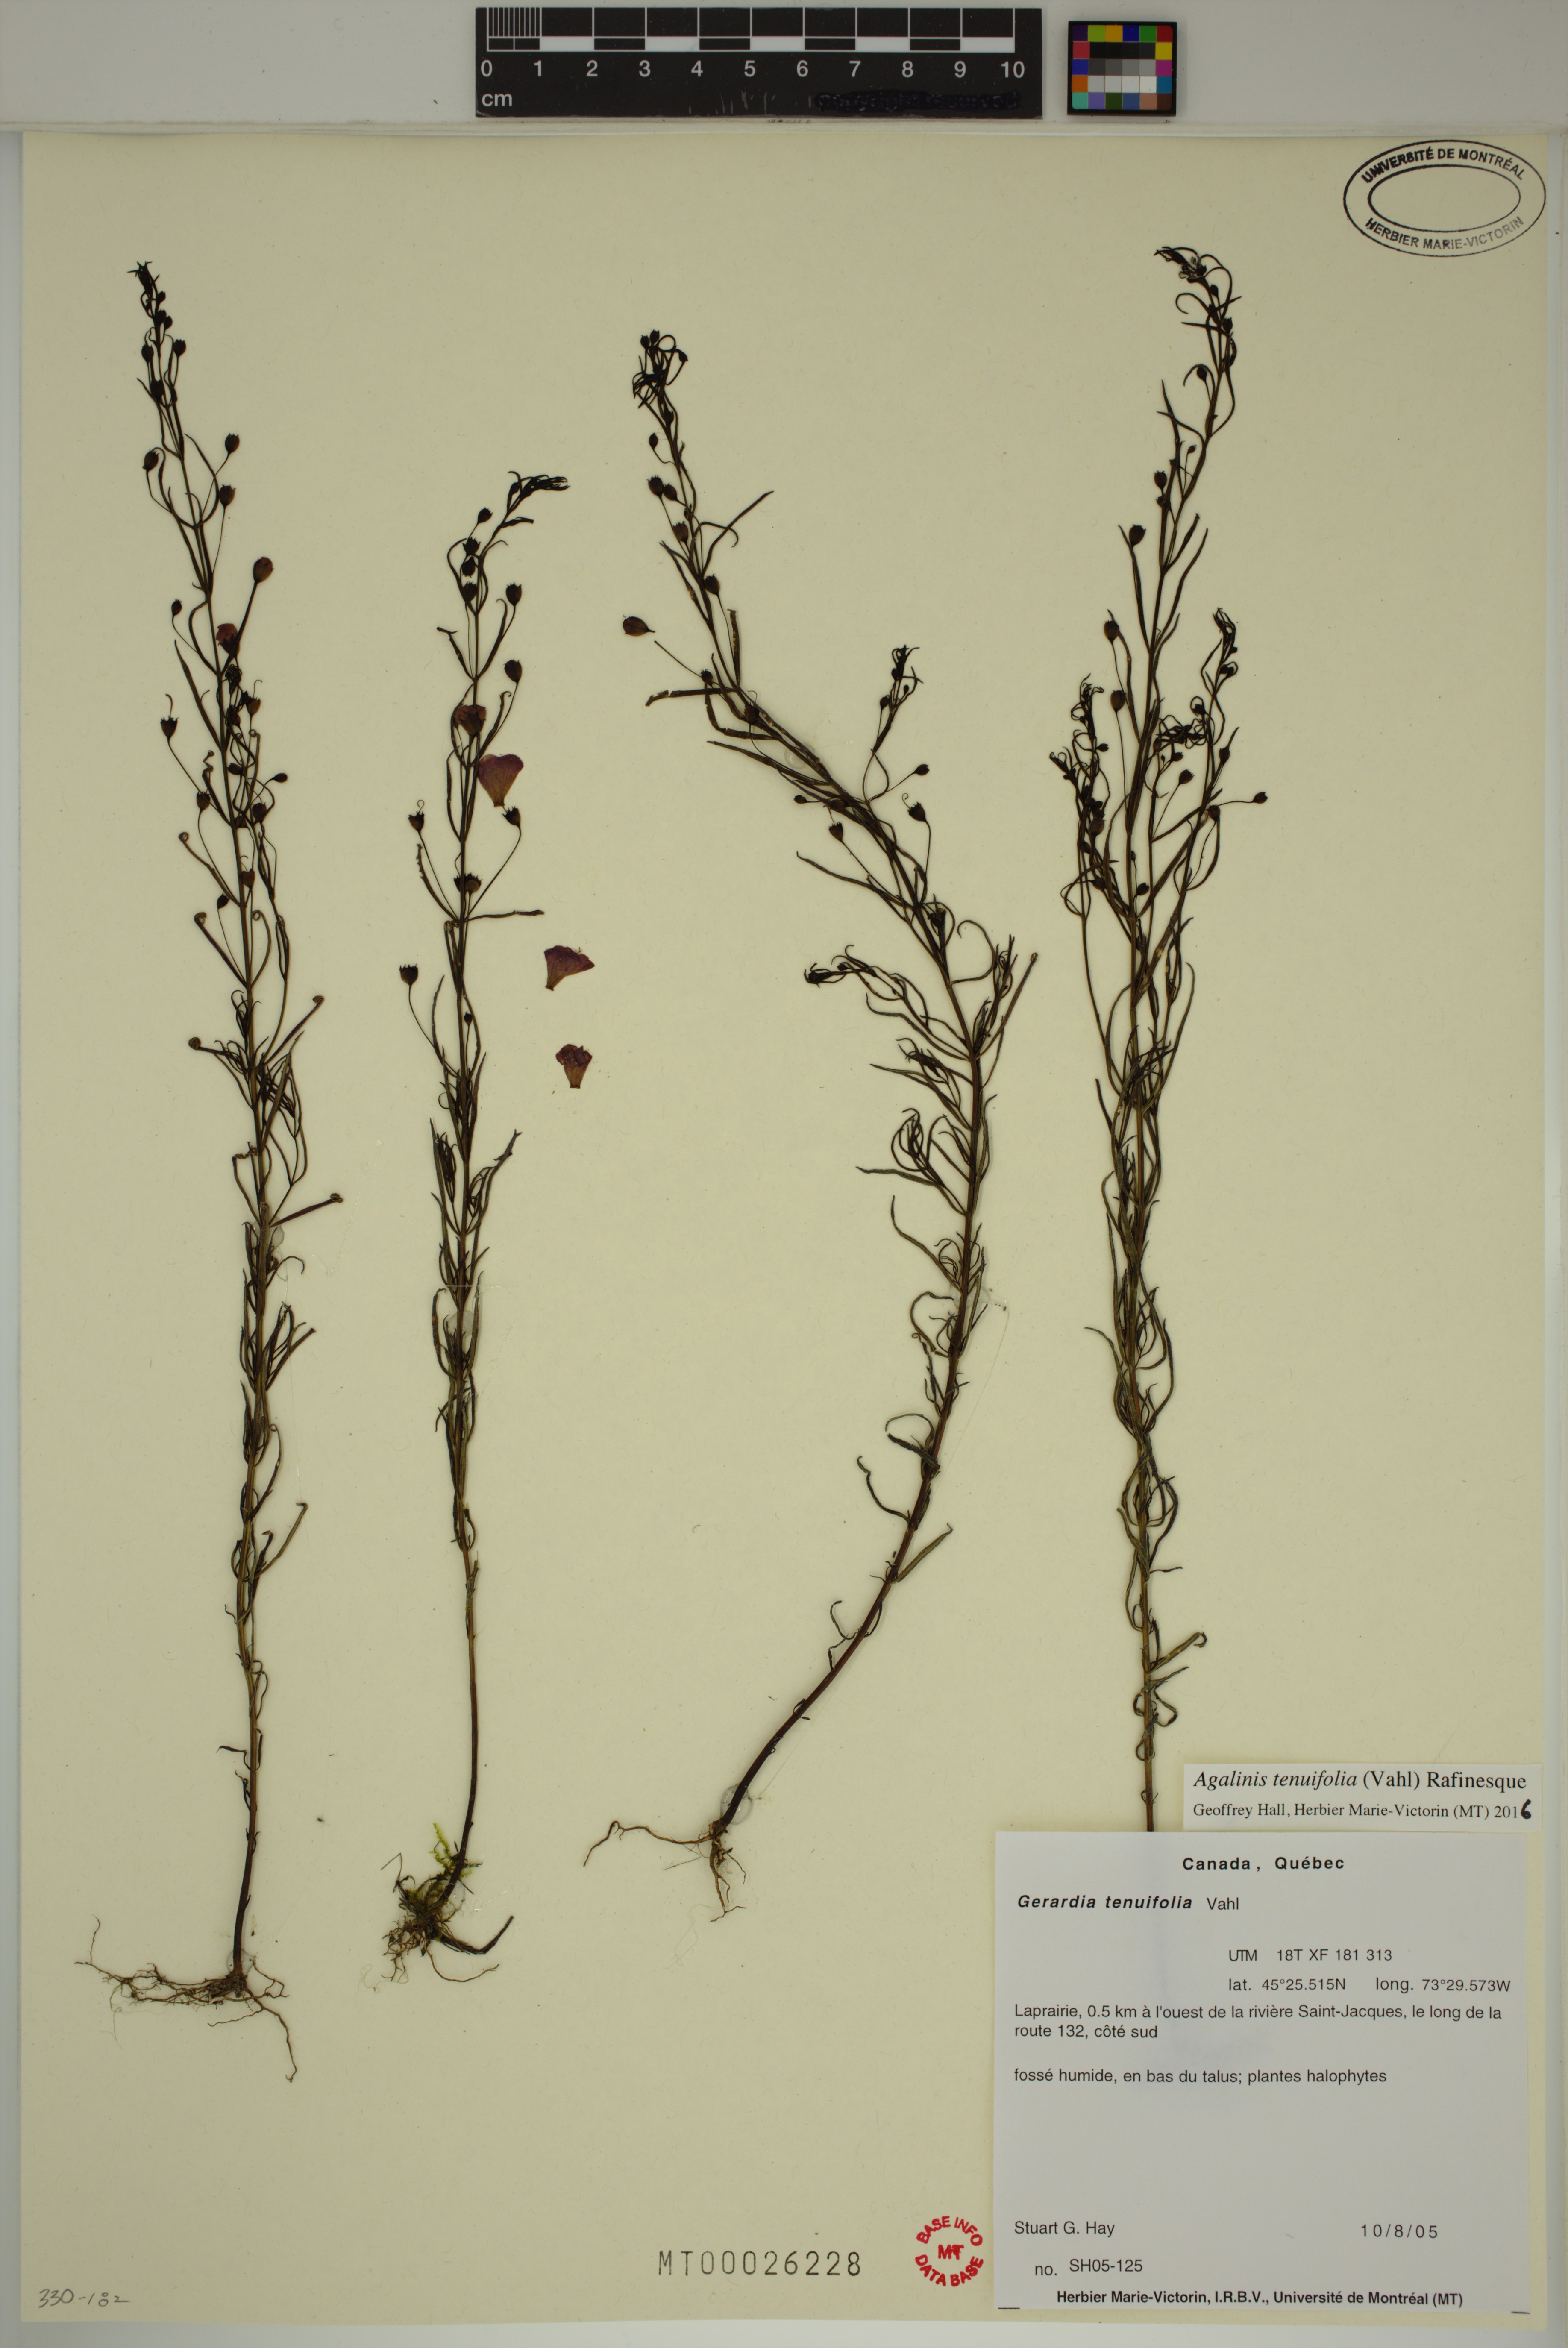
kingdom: Plantae
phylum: Tracheophyta
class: Magnoliopsida
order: Lamiales
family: Orobanchaceae
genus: Agalinis
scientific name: Agalinis tenuifolia
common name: Slender agalinis
